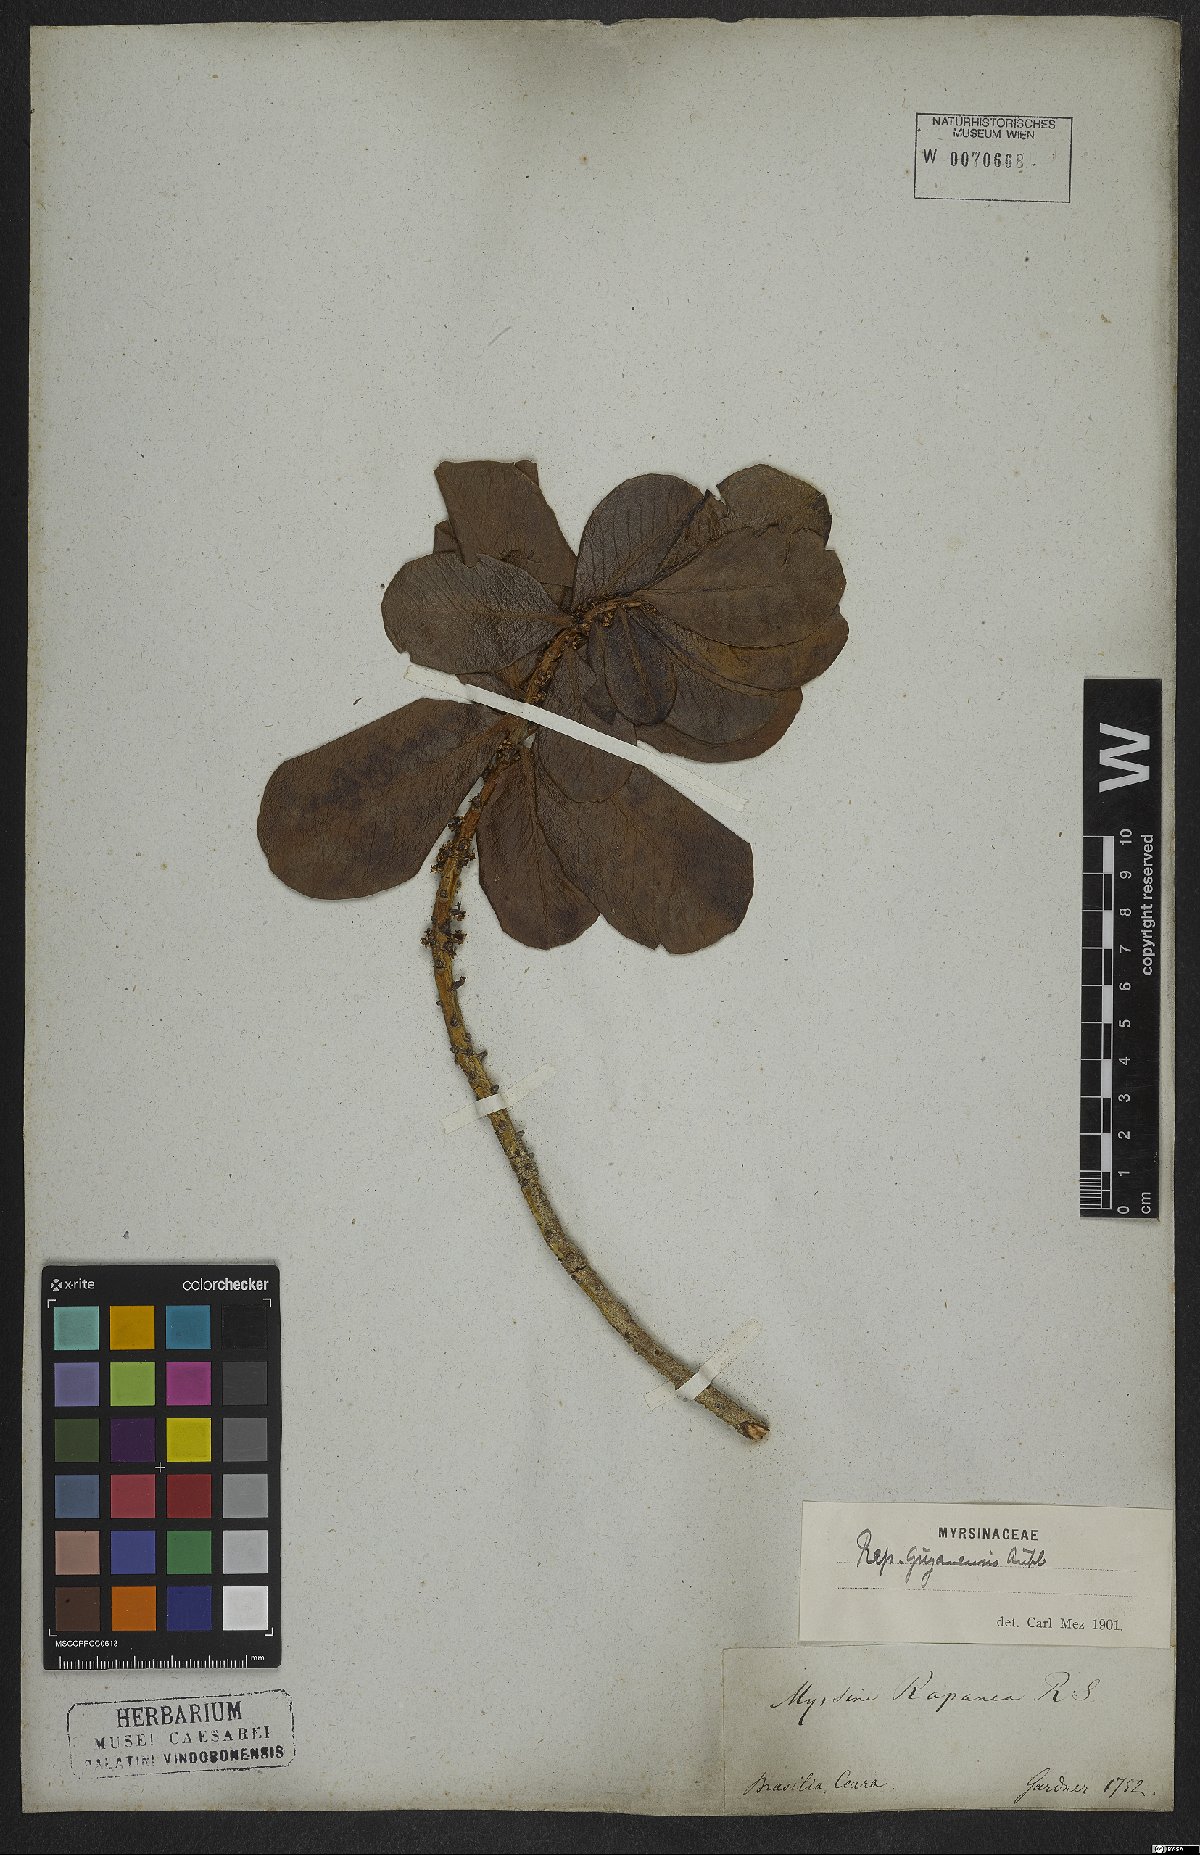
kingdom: Plantae
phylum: Tracheophyta
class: Magnoliopsida
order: Ericales
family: Primulaceae
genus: Myrsine
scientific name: Myrsine guianensis
